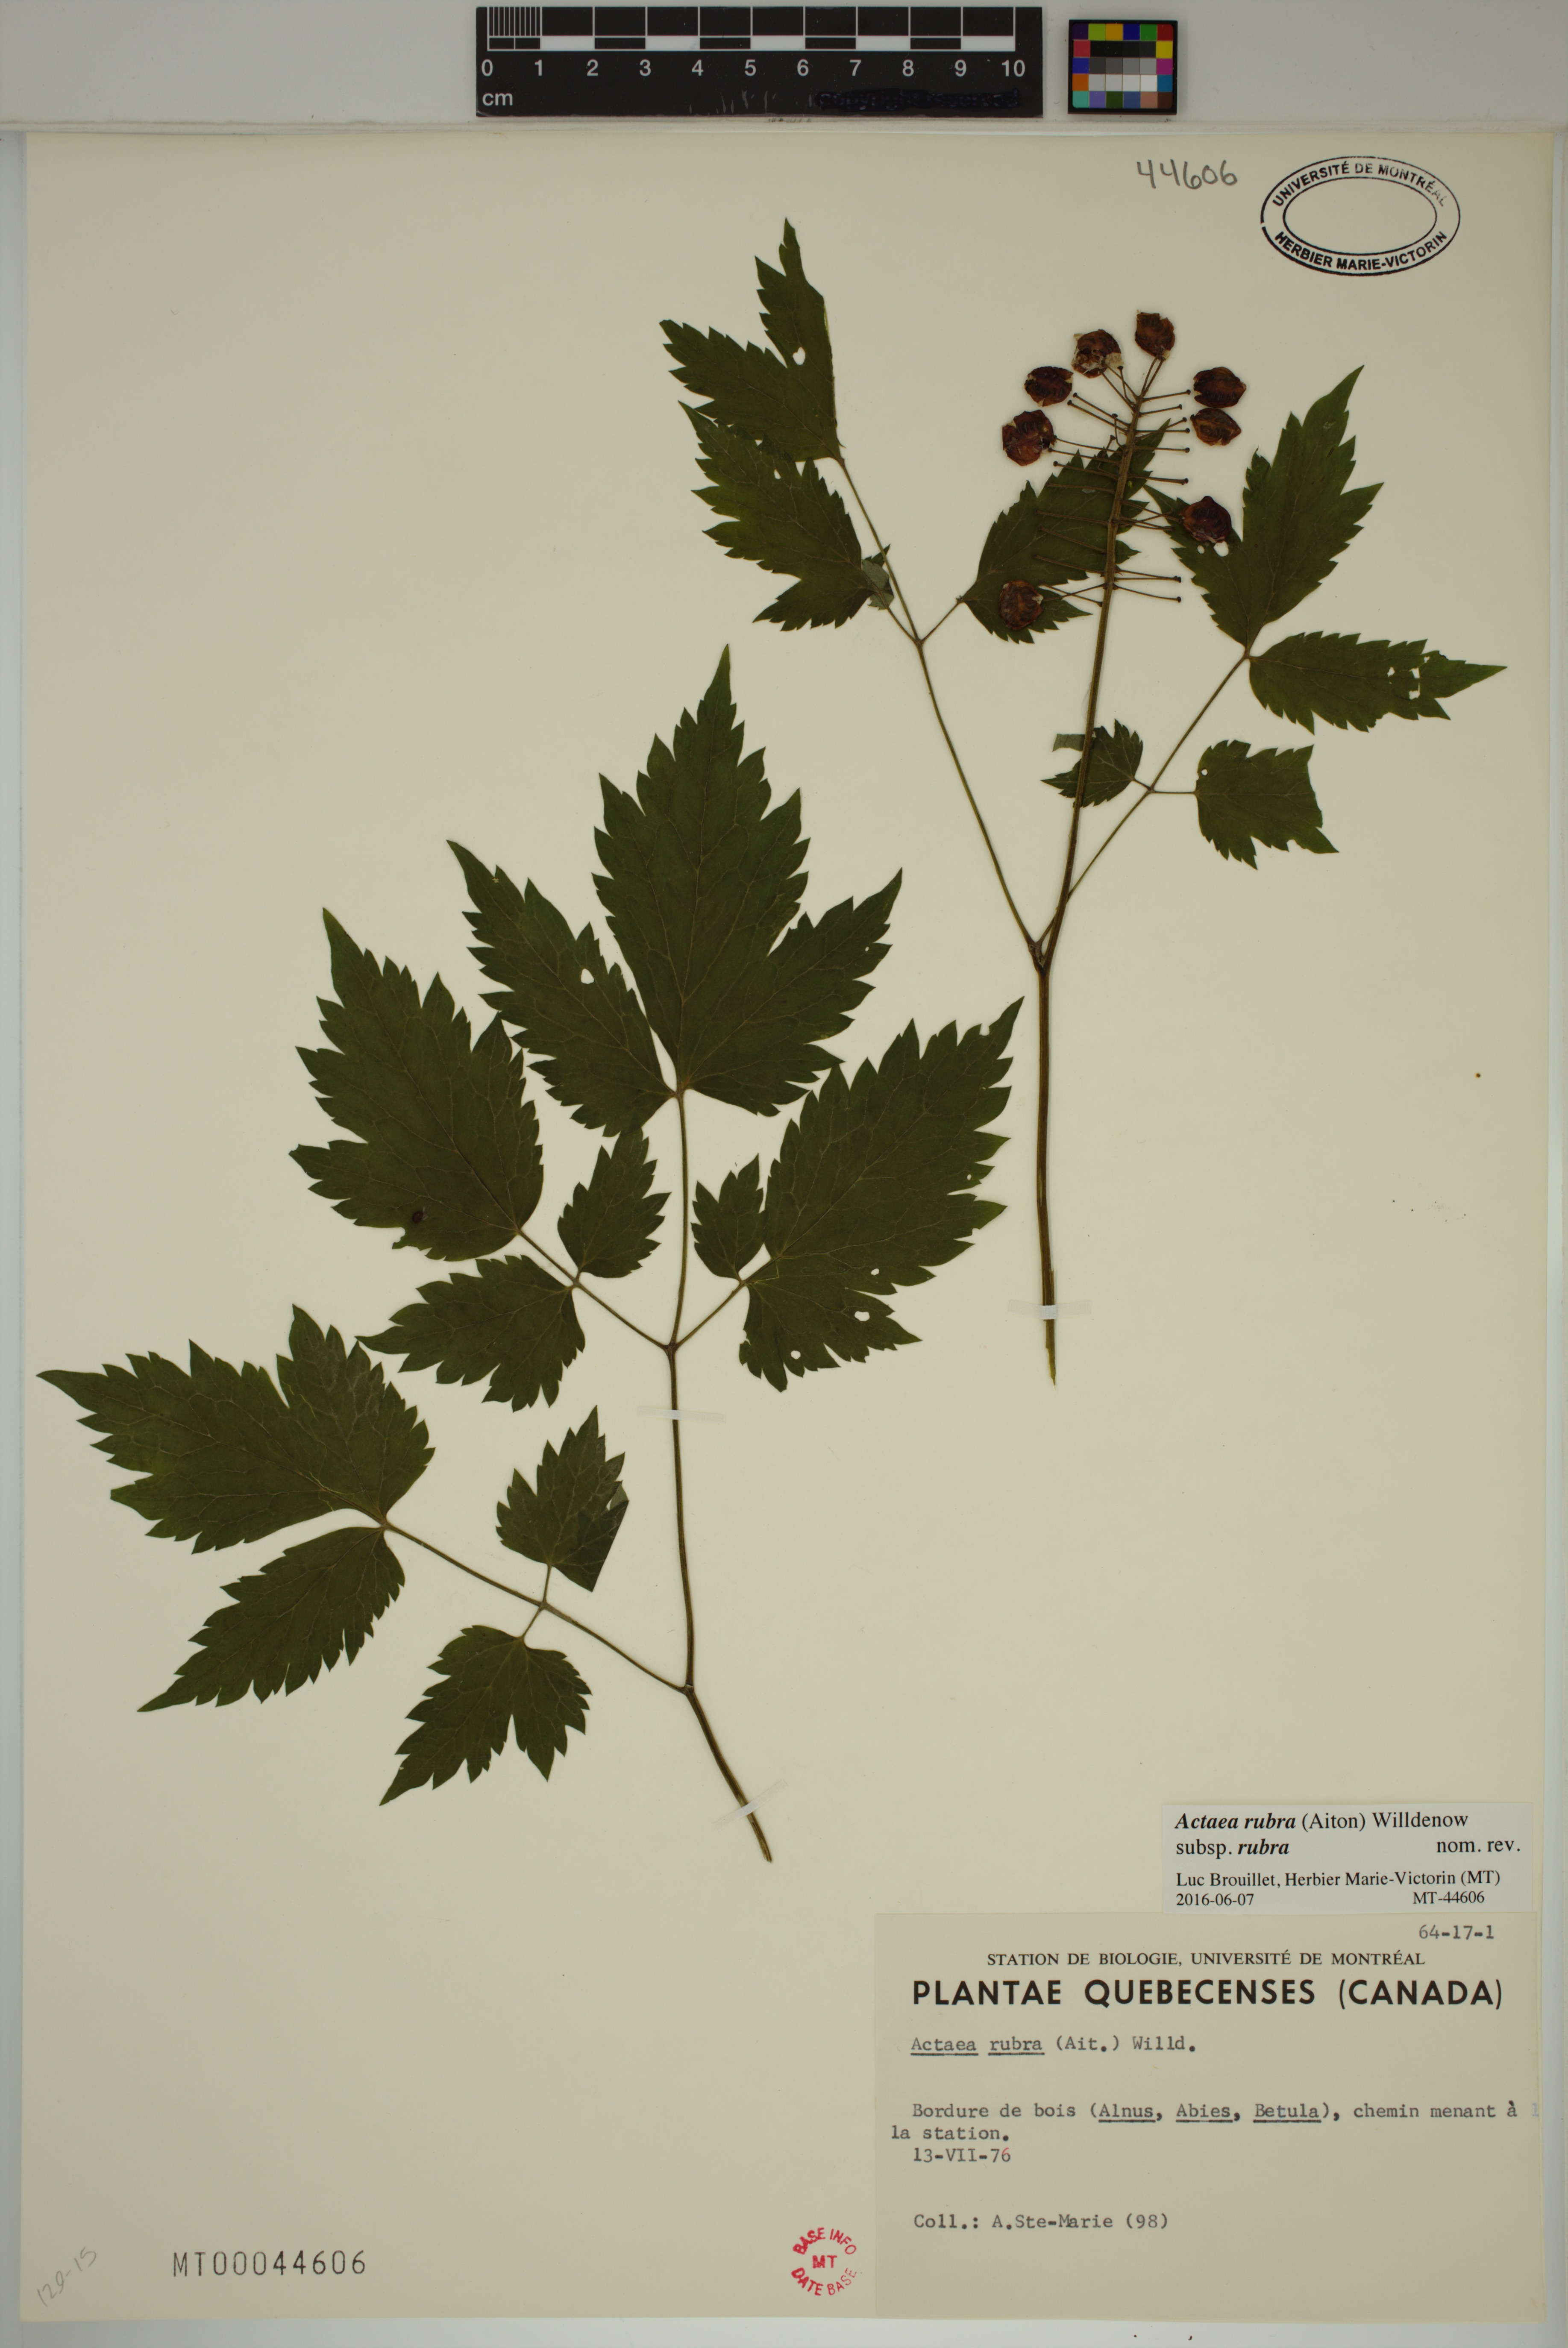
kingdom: Plantae
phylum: Tracheophyta
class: Magnoliopsida
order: Ranunculales
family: Ranunculaceae
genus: Actaea
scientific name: Actaea rubra
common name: Red baneberry
